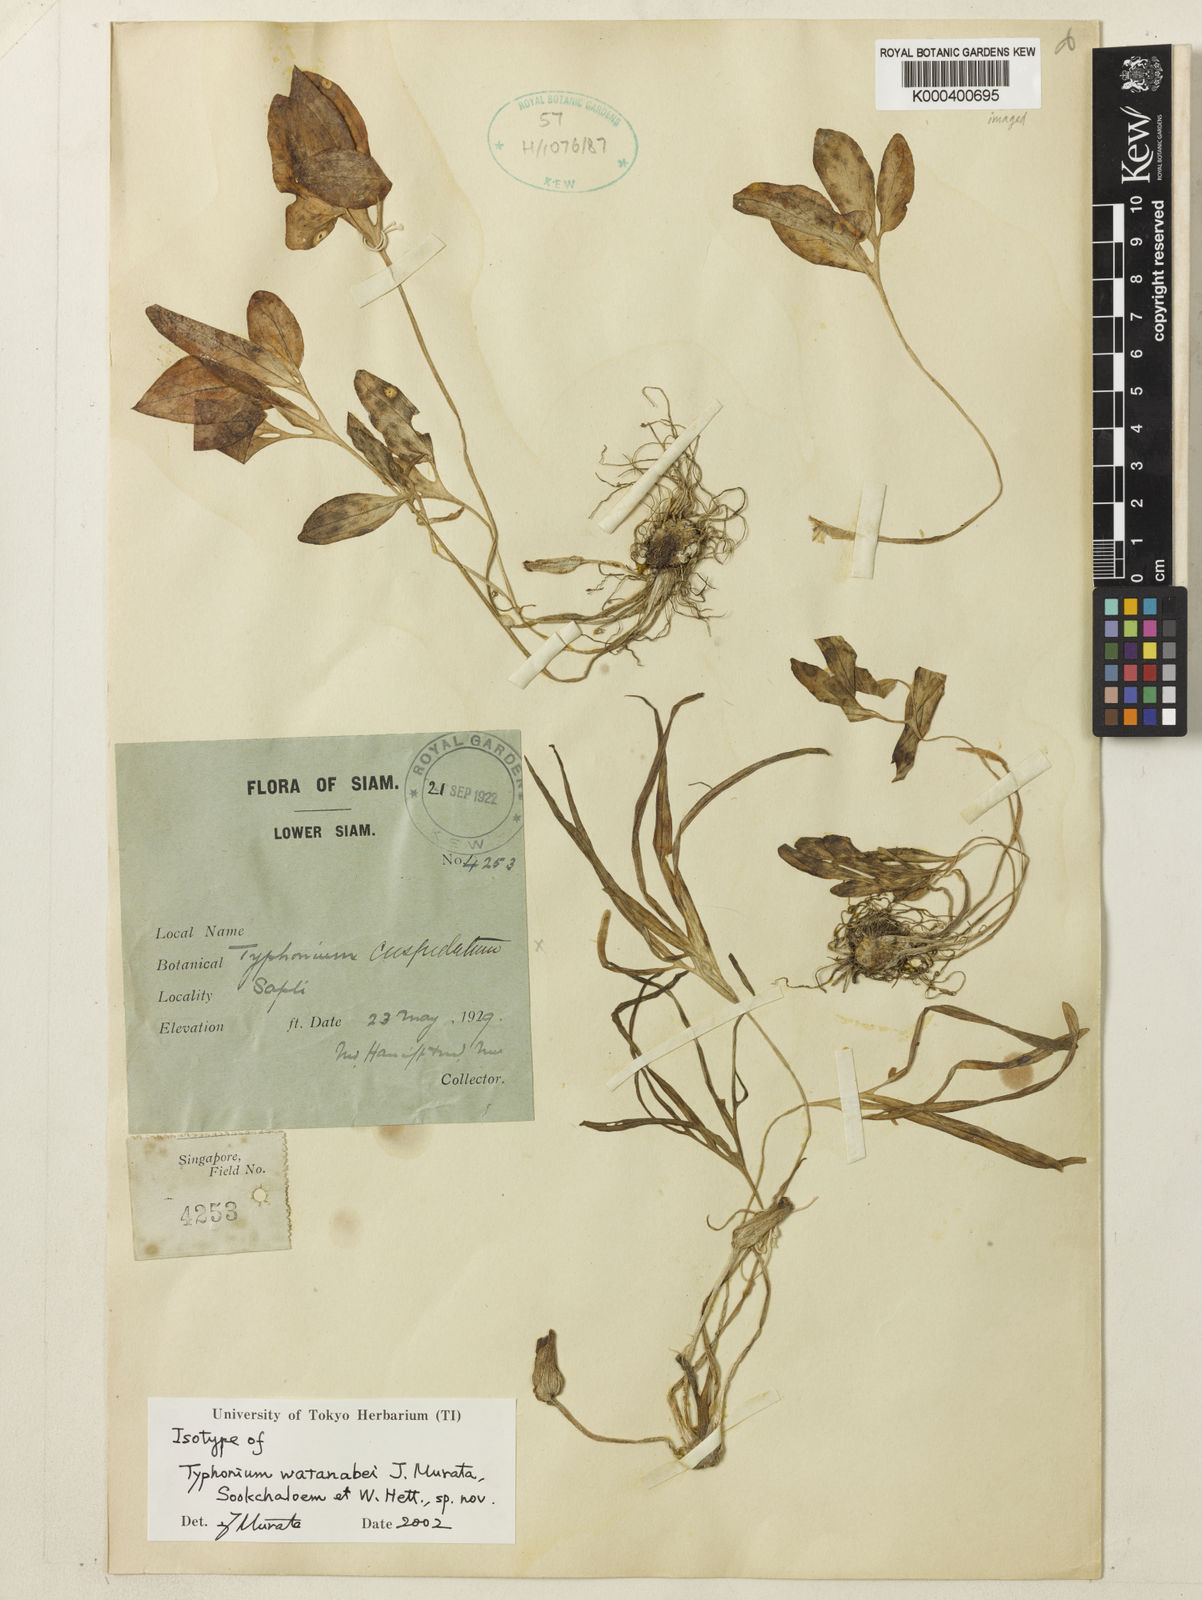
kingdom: Plantae
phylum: Tracheophyta
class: Liliopsida
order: Alismatales
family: Araceae
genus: Typhonium
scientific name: Typhonium watanabei
